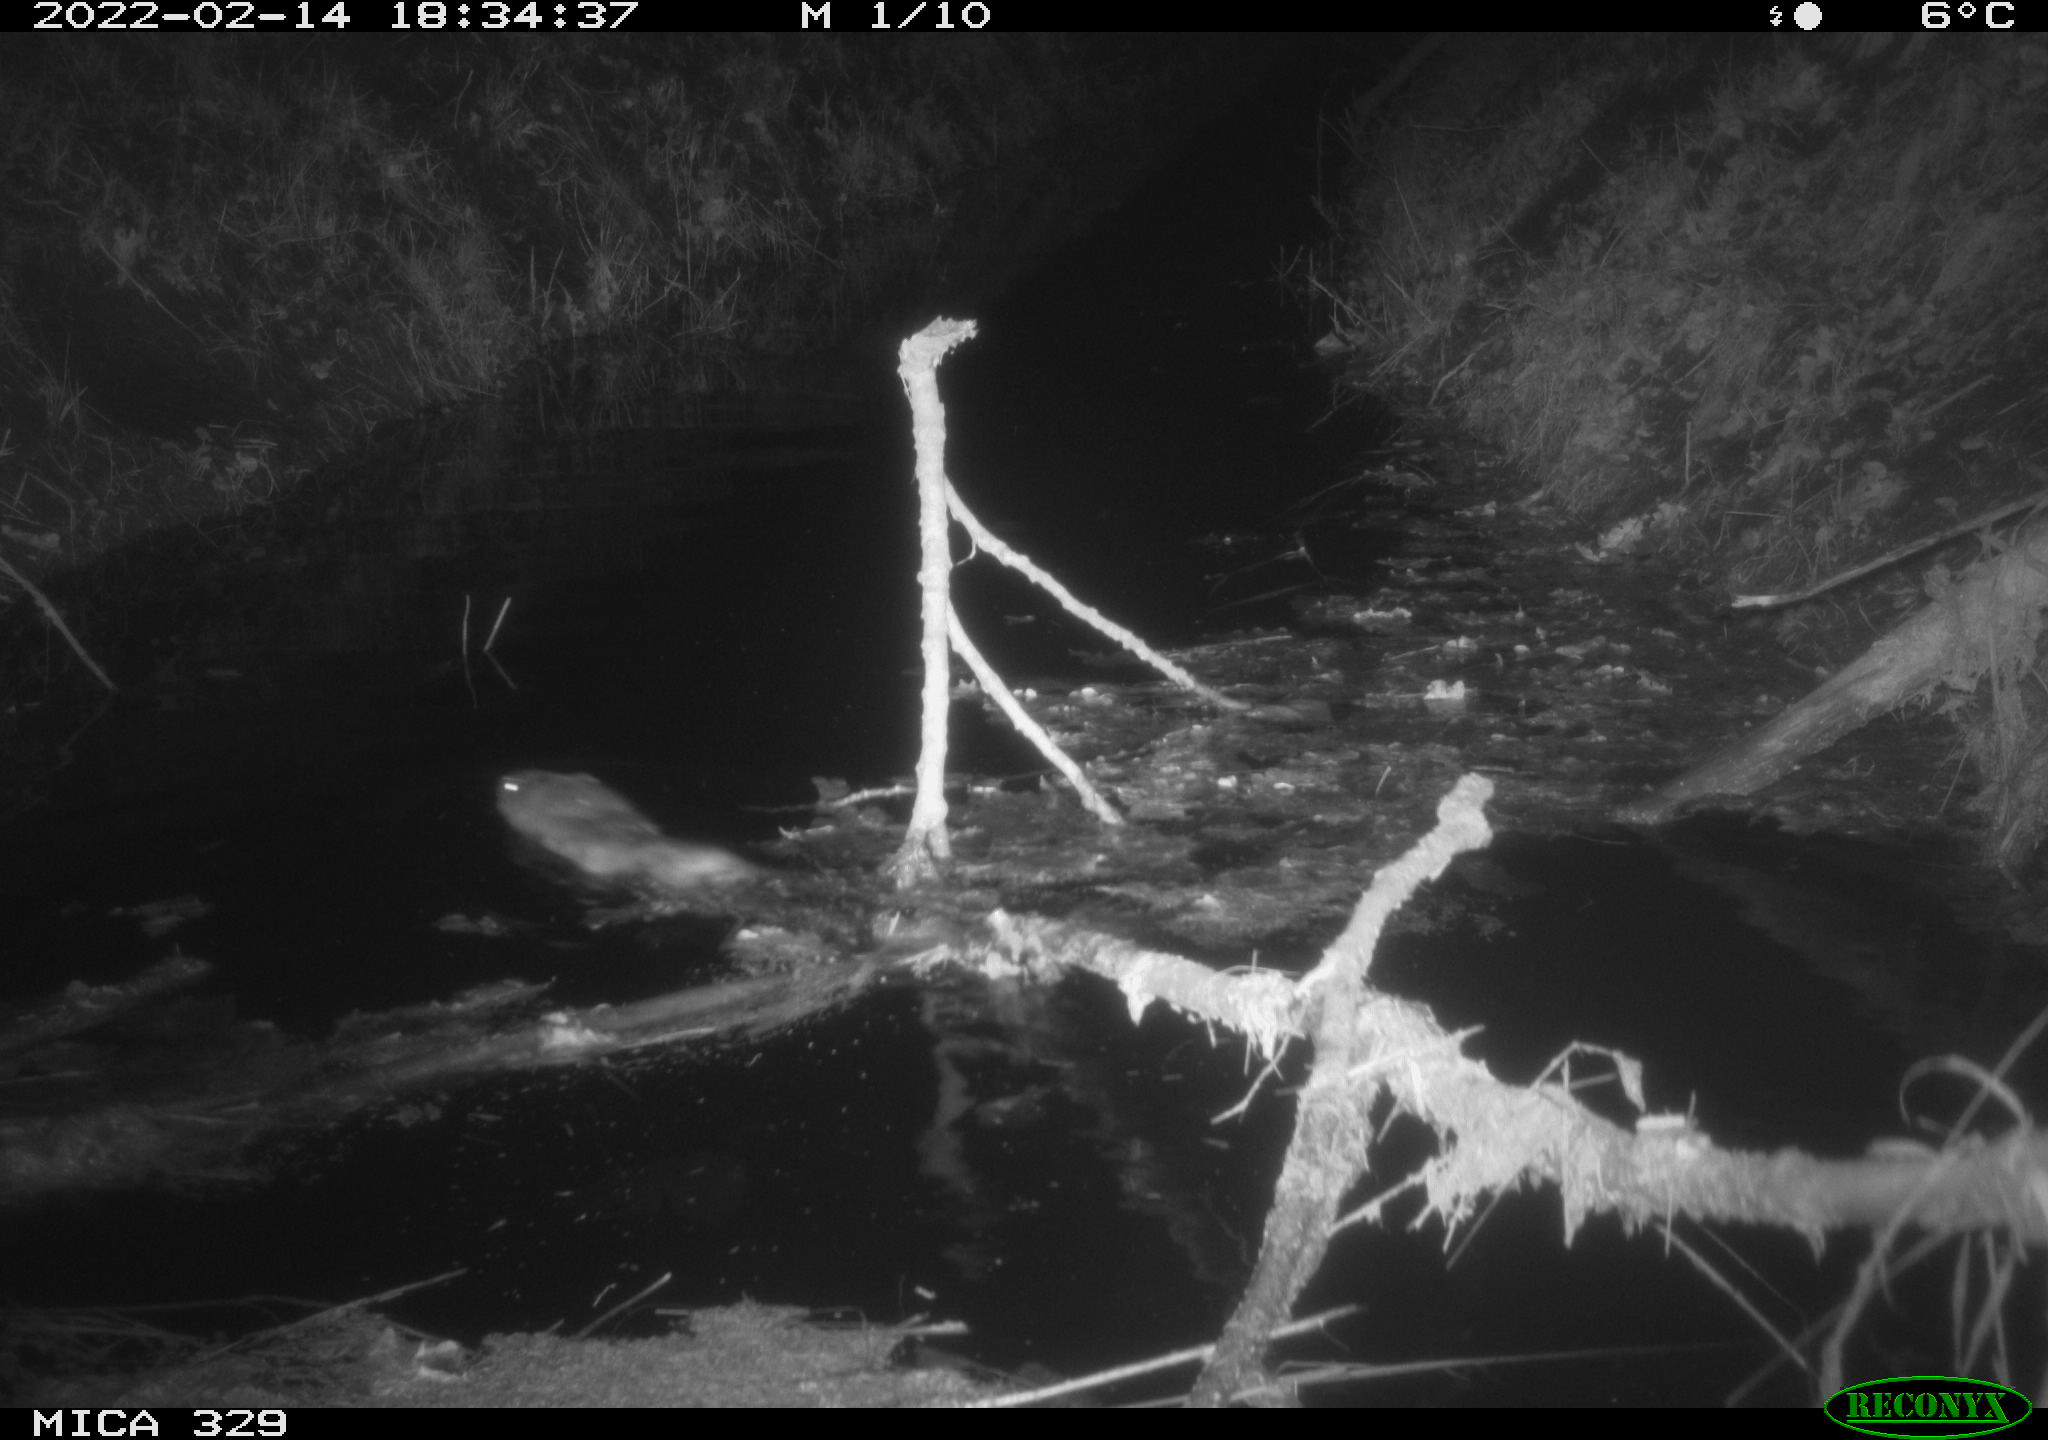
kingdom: Animalia
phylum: Chordata
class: Mammalia
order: Rodentia
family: Cricetidae
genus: Ondatra
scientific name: Ondatra zibethicus
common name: Muskrat
